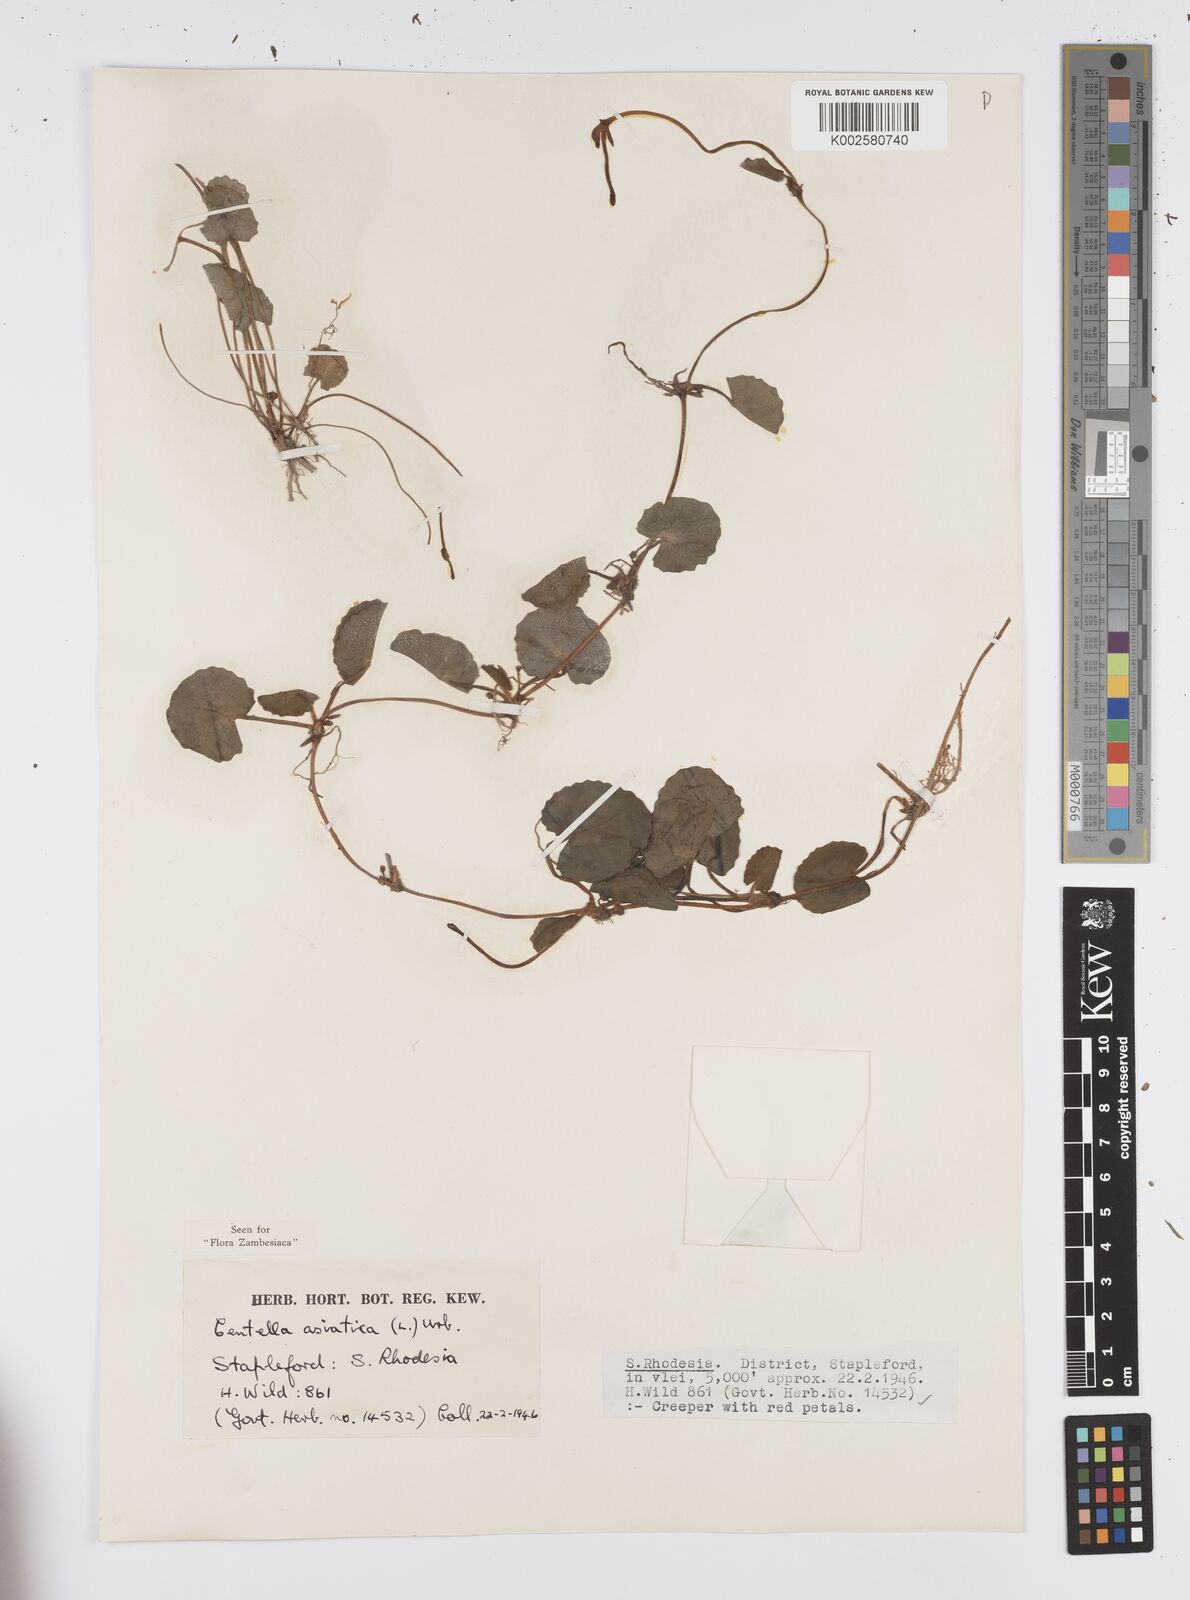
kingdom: Plantae
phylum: Tracheophyta
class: Magnoliopsida
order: Apiales
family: Apiaceae
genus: Centella
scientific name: Centella asiatica
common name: Spadeleaf
